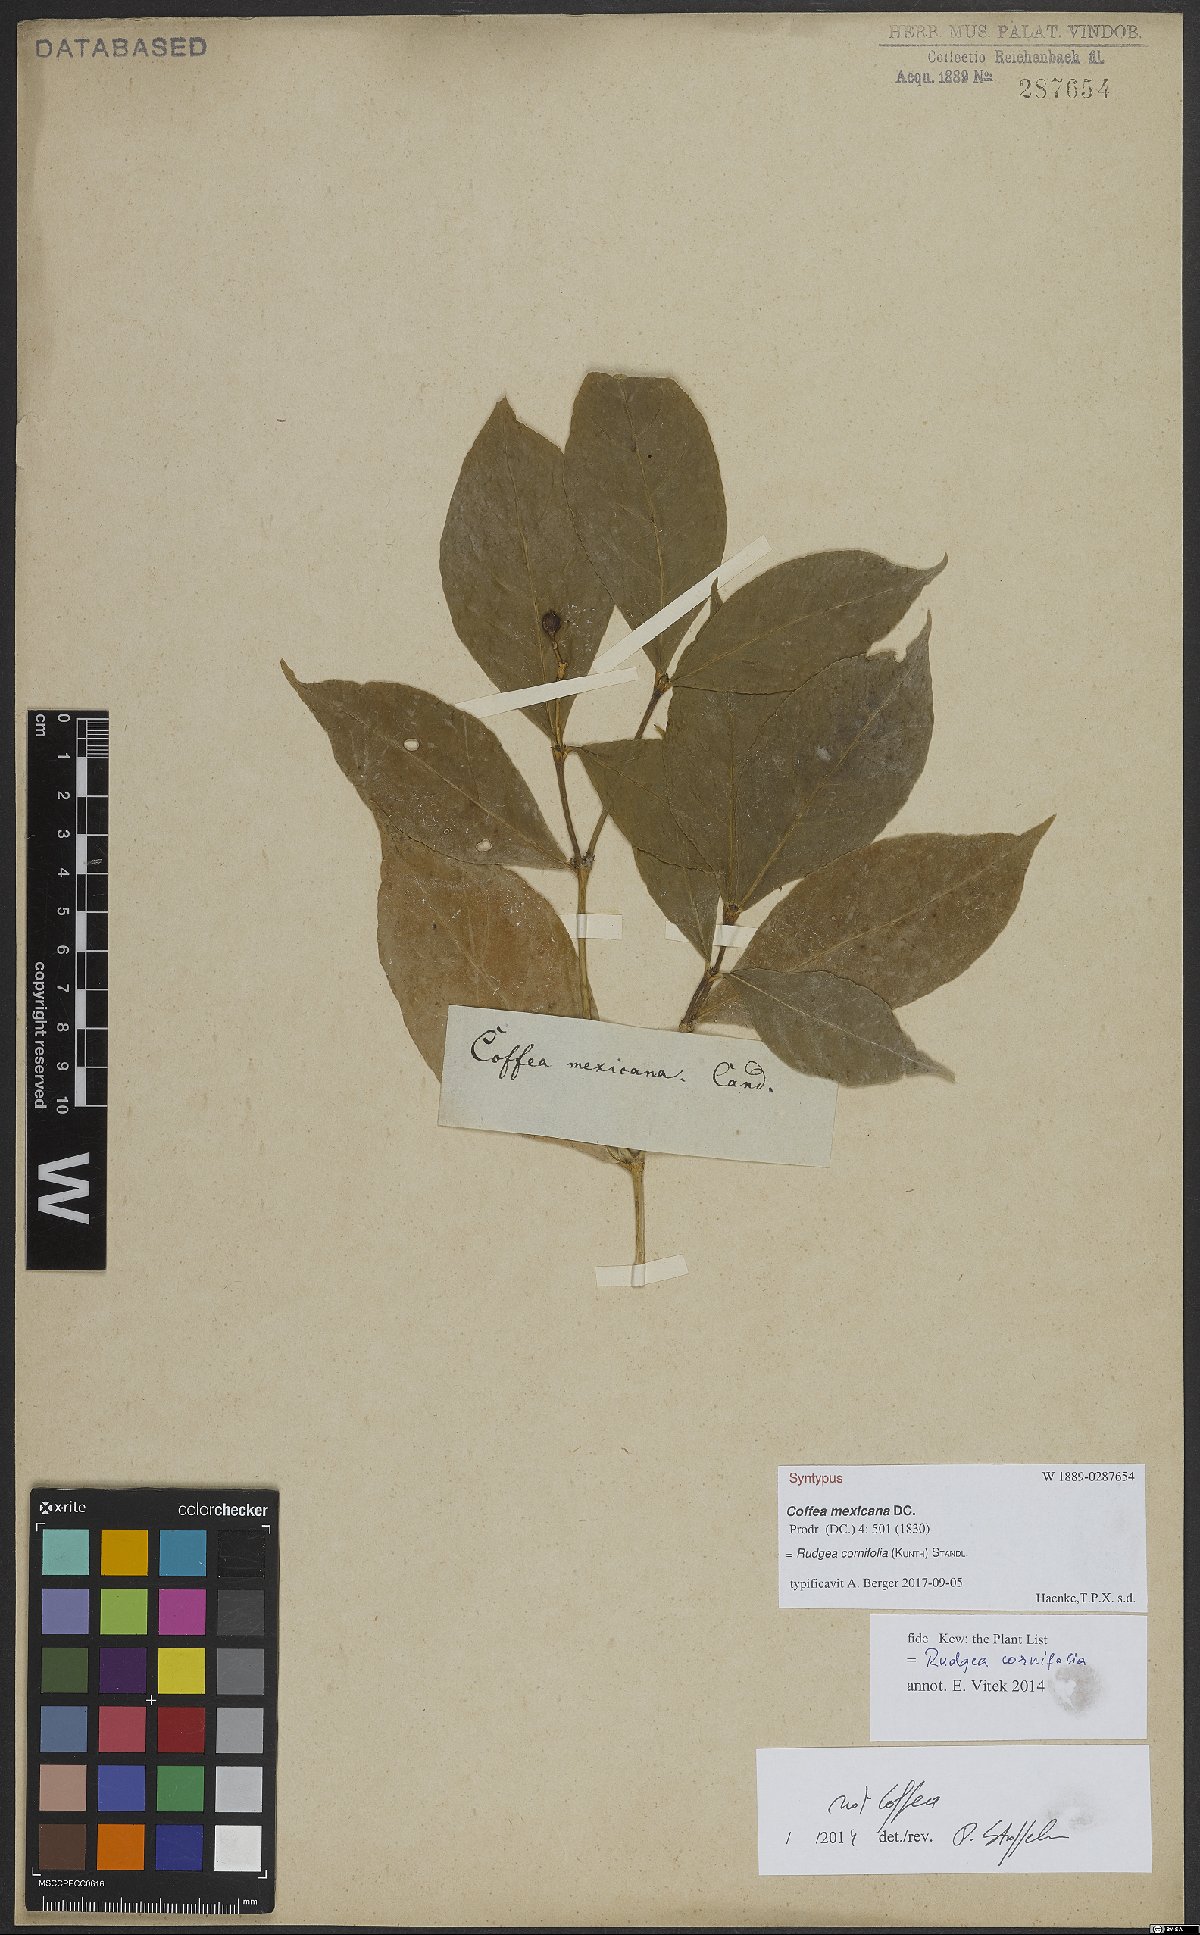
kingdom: Plantae
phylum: Tracheophyta
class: Magnoliopsida
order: Gentianales
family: Rubiaceae
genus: Rudgea
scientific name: Rudgea cornifolia
